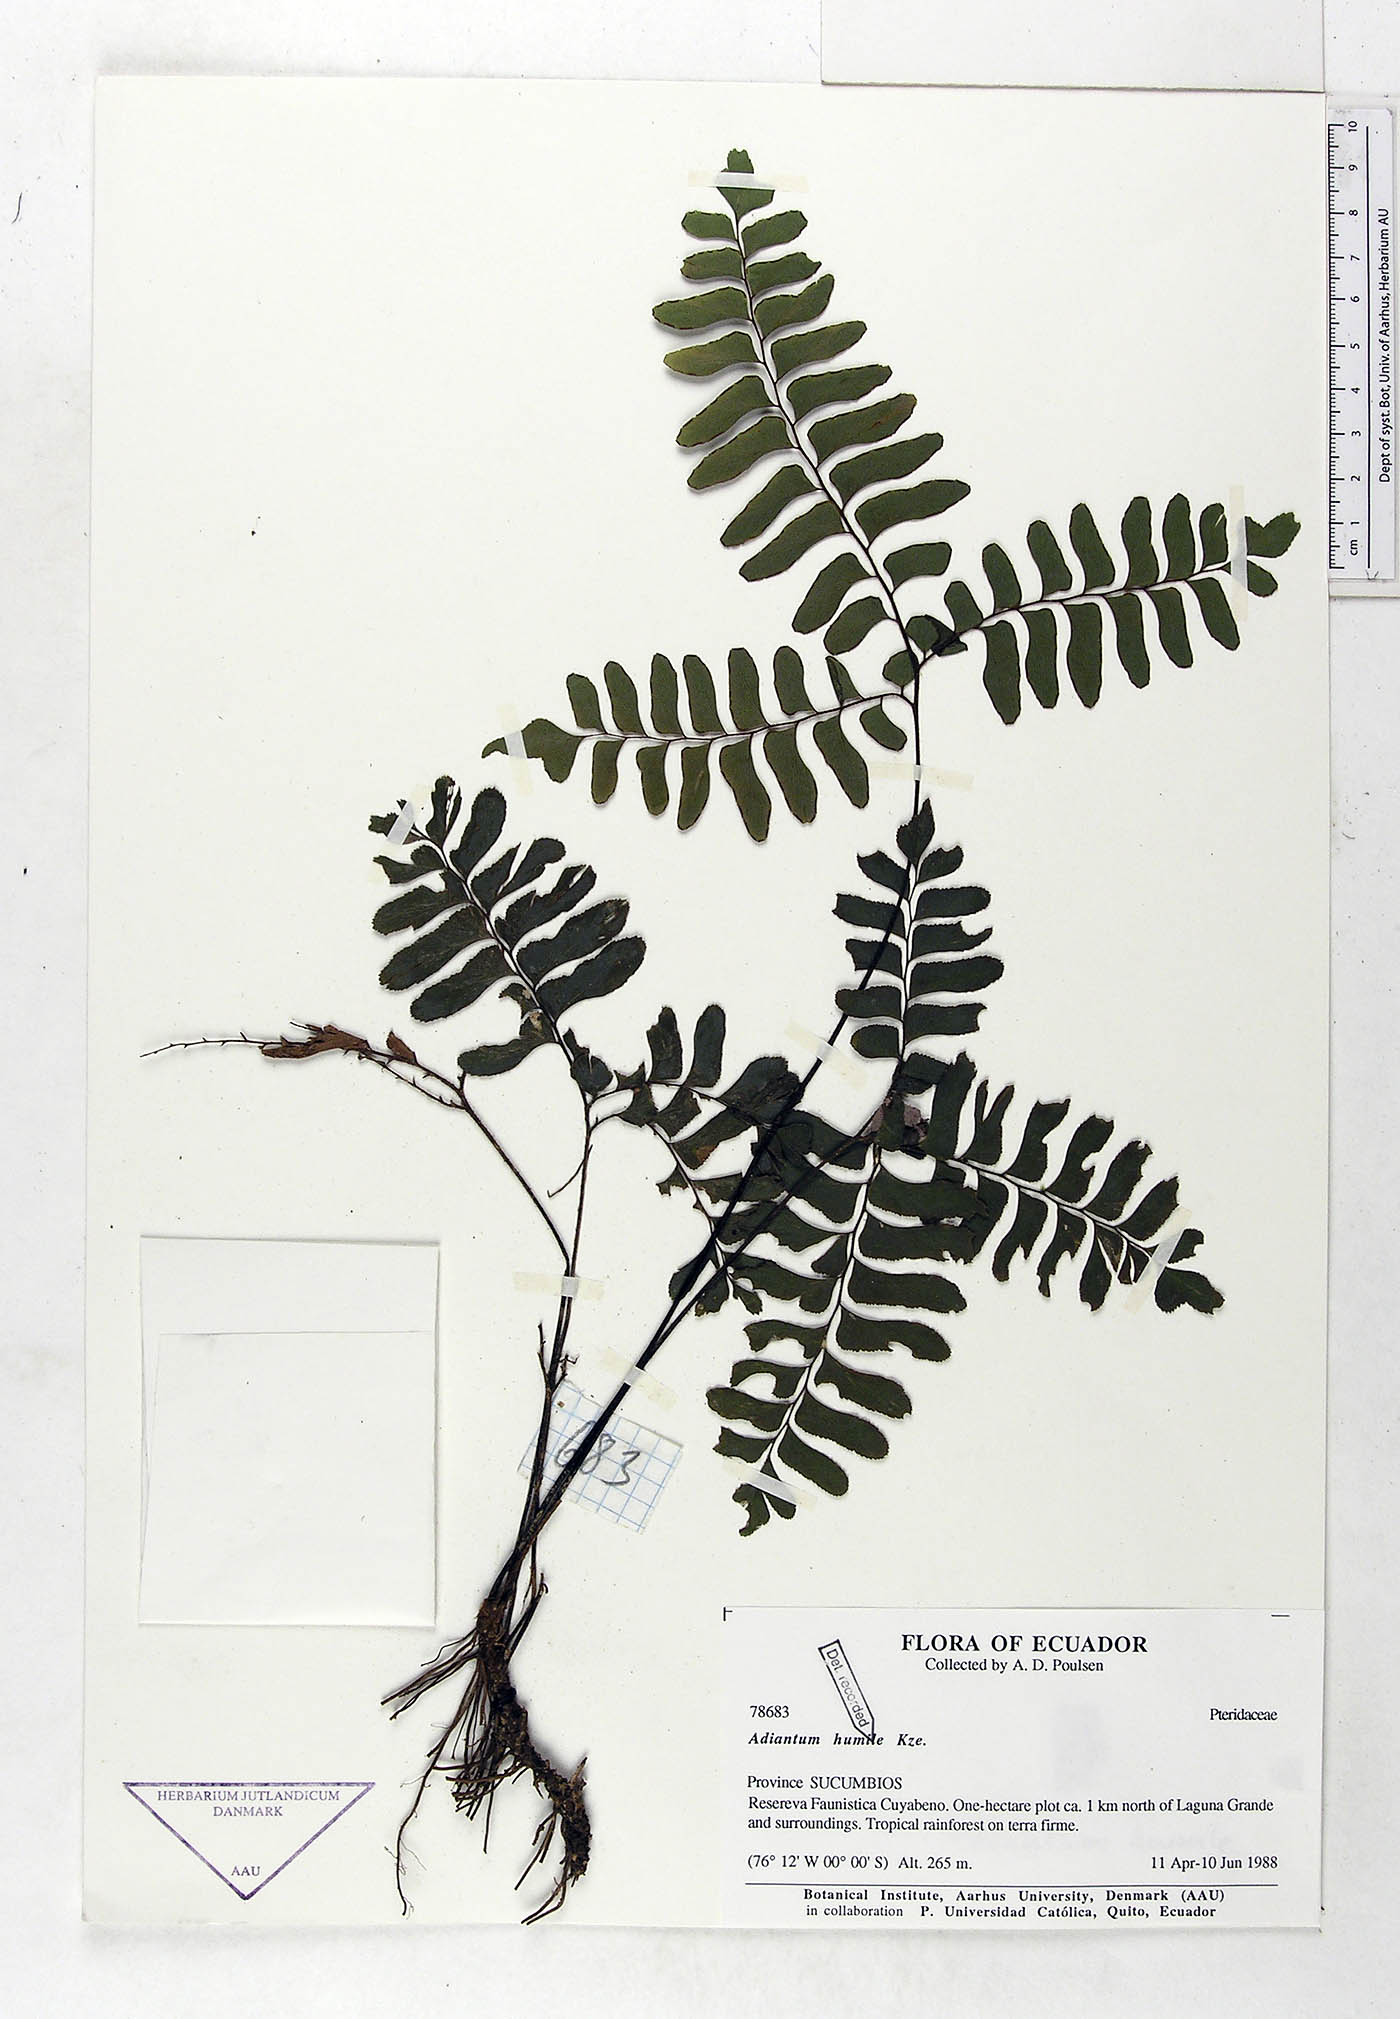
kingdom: Plantae
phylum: Tracheophyta
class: Polypodiopsida
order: Polypodiales
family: Pteridaceae
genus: Adiantum
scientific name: Adiantum humile
